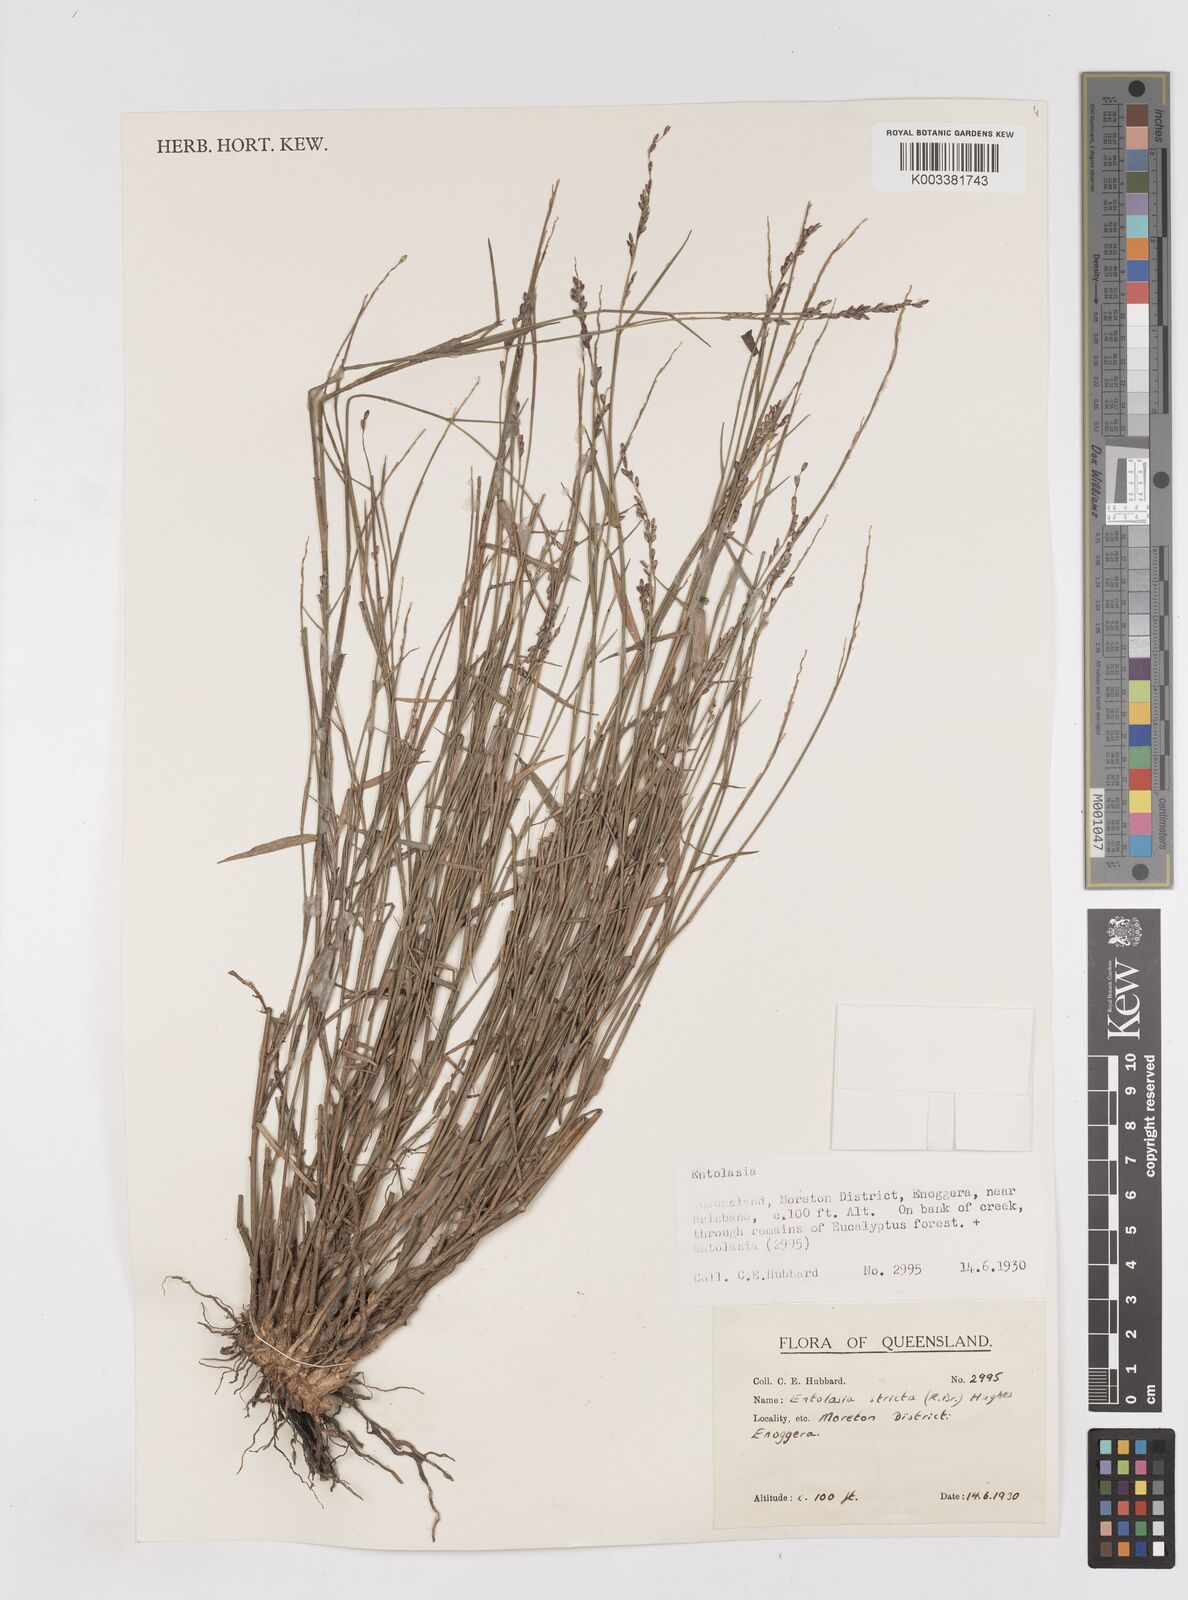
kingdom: Plantae
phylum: Tracheophyta
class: Liliopsida
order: Poales
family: Poaceae
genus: Entolasia
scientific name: Entolasia stricta
